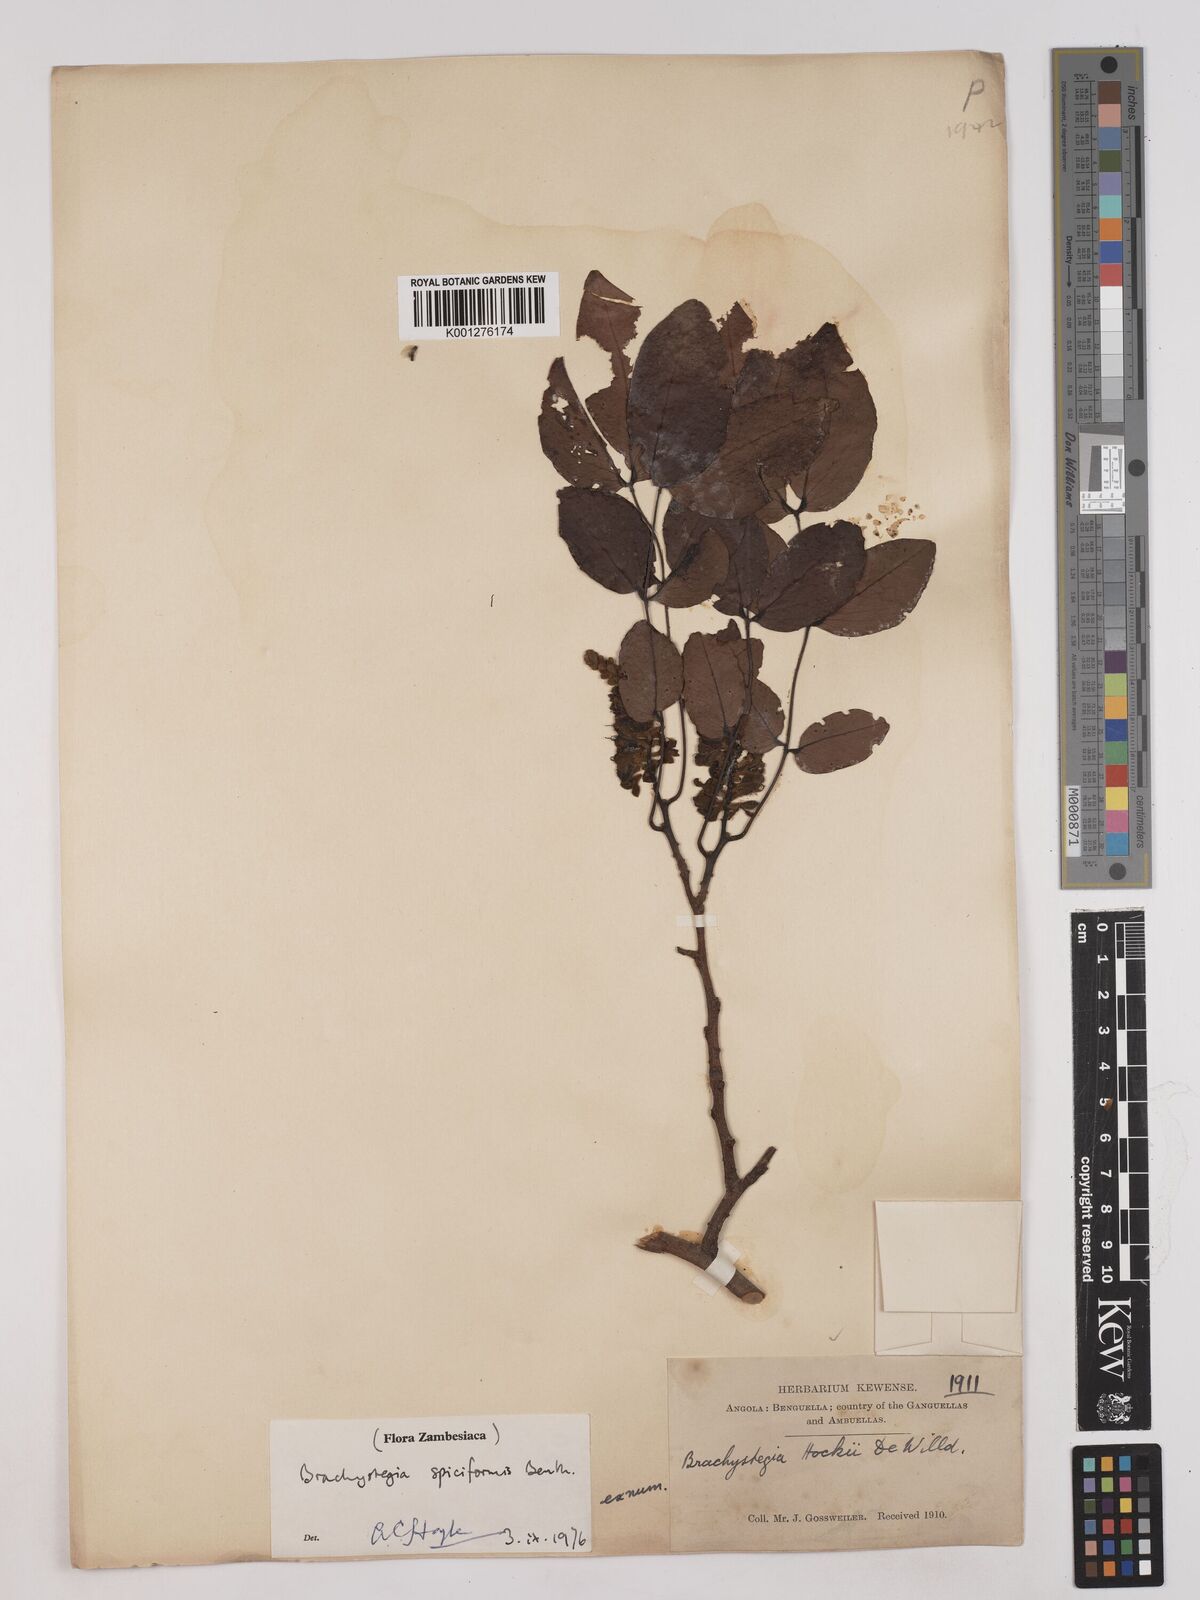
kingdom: Plantae
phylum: Tracheophyta
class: Magnoliopsida
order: Fabales
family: Fabaceae
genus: Brachystegia
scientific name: Brachystegia
